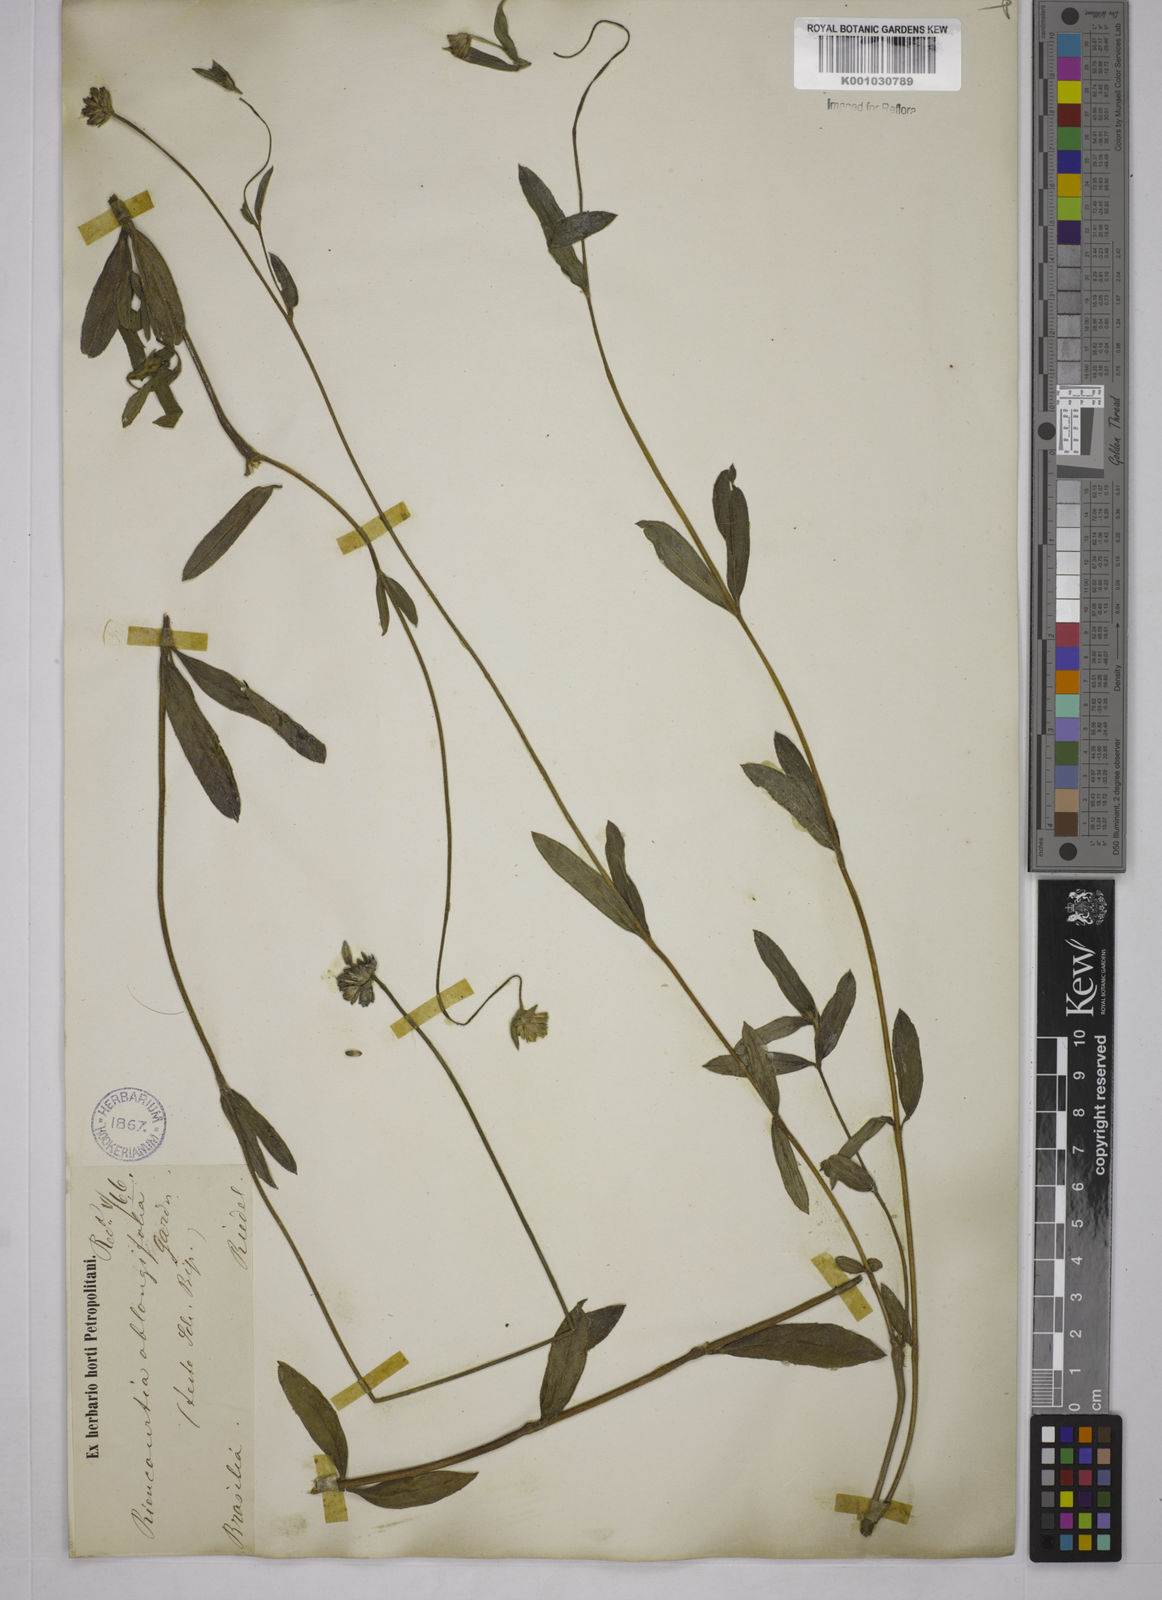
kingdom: Plantae
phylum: Tracheophyta
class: Magnoliopsida
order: Asterales
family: Asteraceae
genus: Riencourtia
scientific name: Riencourtia oblongifolia
